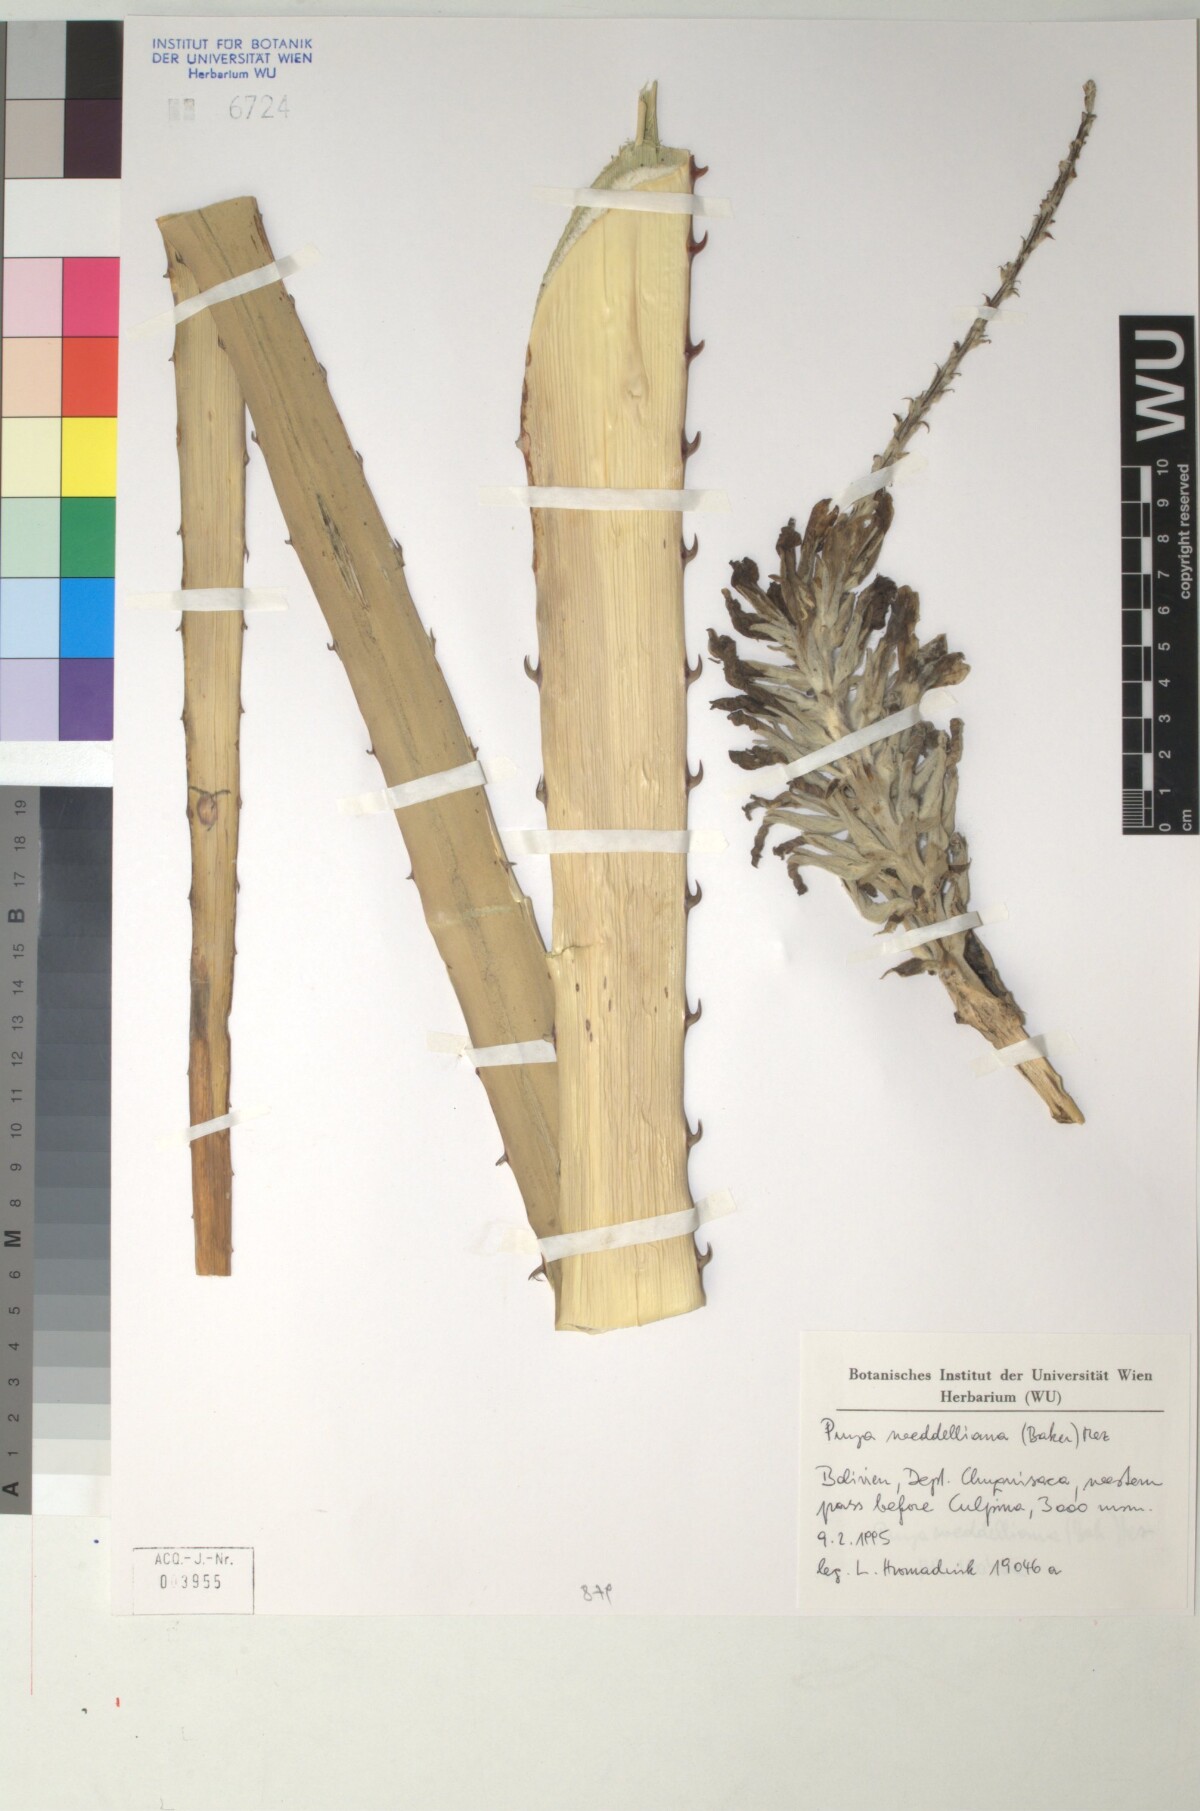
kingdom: Plantae
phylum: Tracheophyta
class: Liliopsida
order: Poales
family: Bromeliaceae
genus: Puya
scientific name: Puya weddelliana
